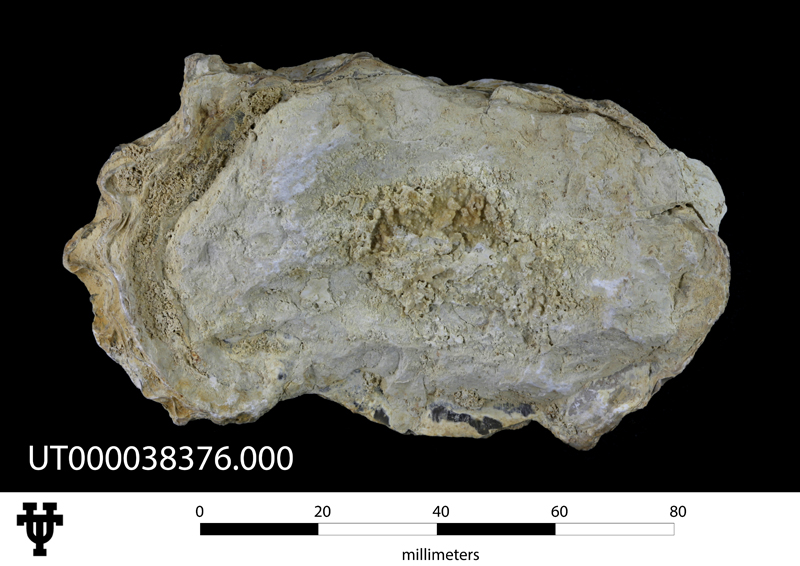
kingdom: Animalia
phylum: Mollusca
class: Bivalvia
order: Ostreida
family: Gryphaeidae
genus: Exogyra
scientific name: Exogyra
